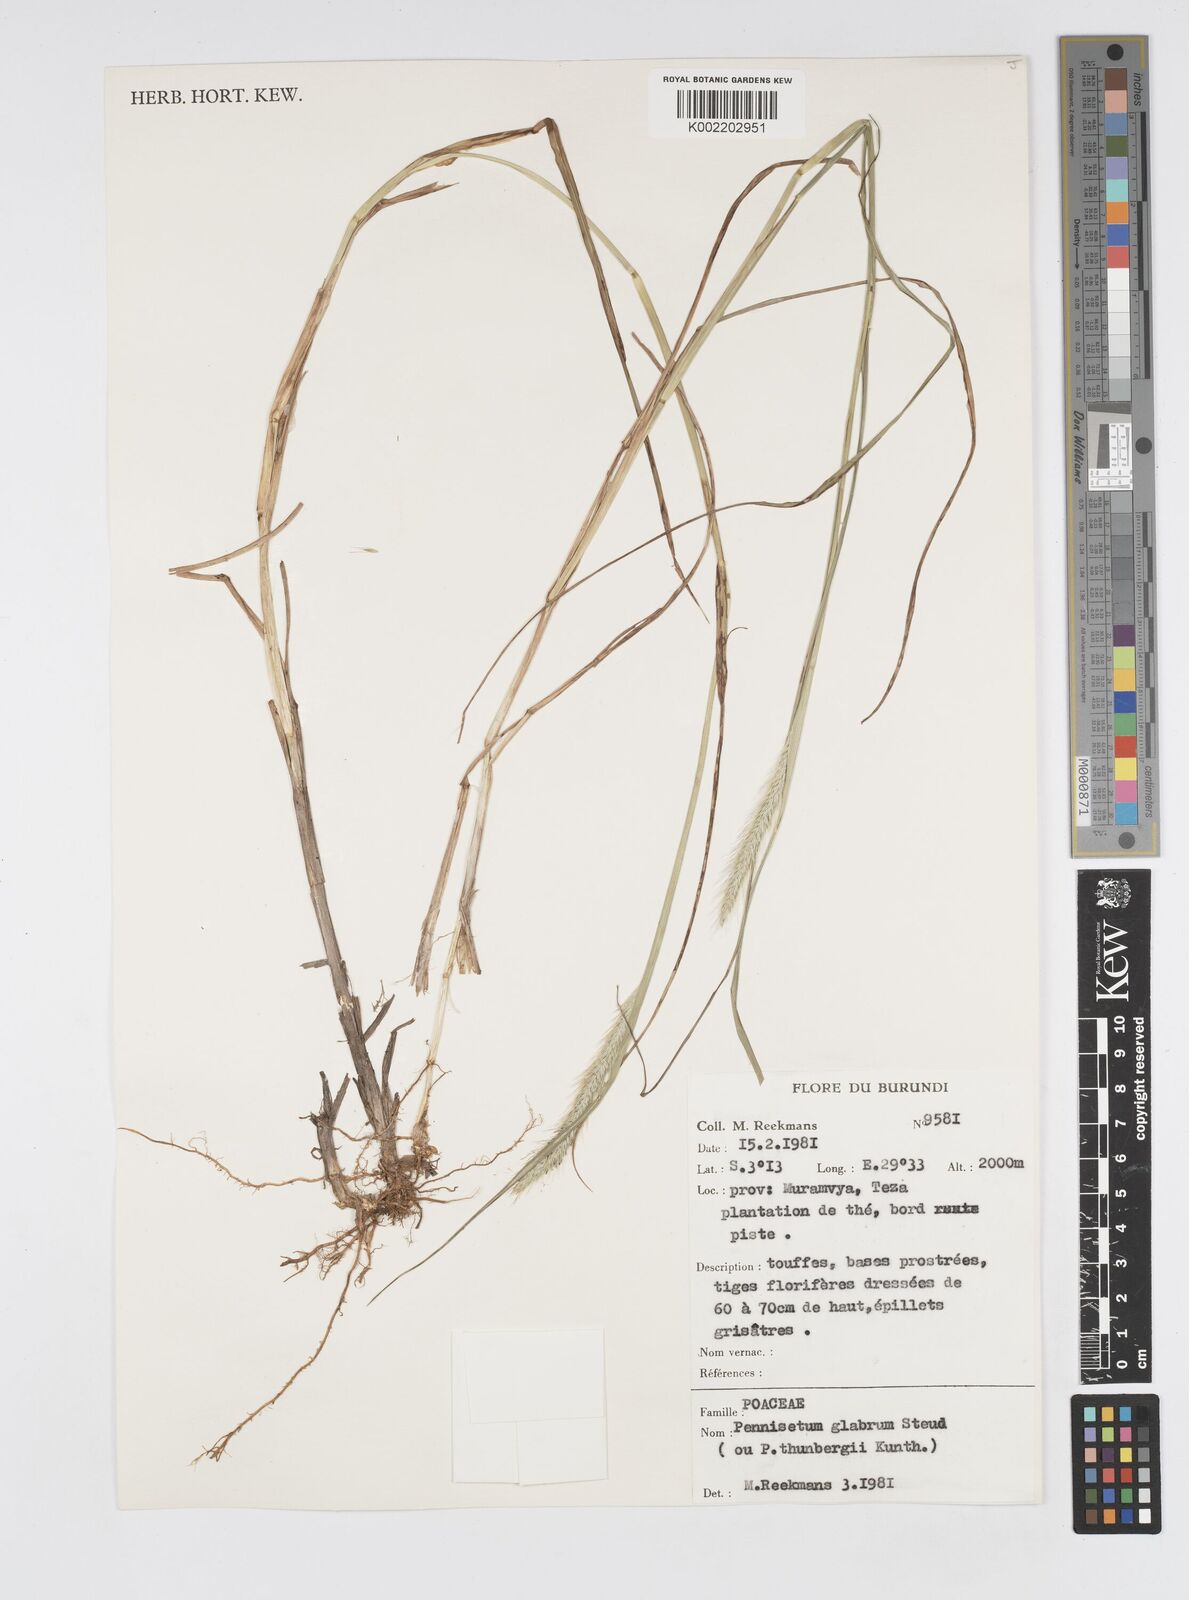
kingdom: Plantae
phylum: Tracheophyta
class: Liliopsida
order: Poales
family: Poaceae
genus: Cenchrus
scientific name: Cenchrus geniculatus
